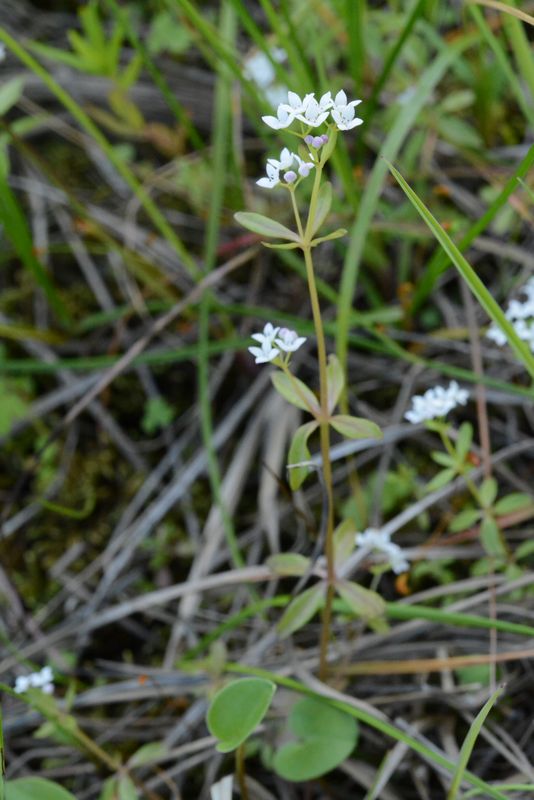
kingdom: Plantae
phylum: Tracheophyta
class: Magnoliopsida
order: Gentianales
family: Rubiaceae
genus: Galium
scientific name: Galium palustre
